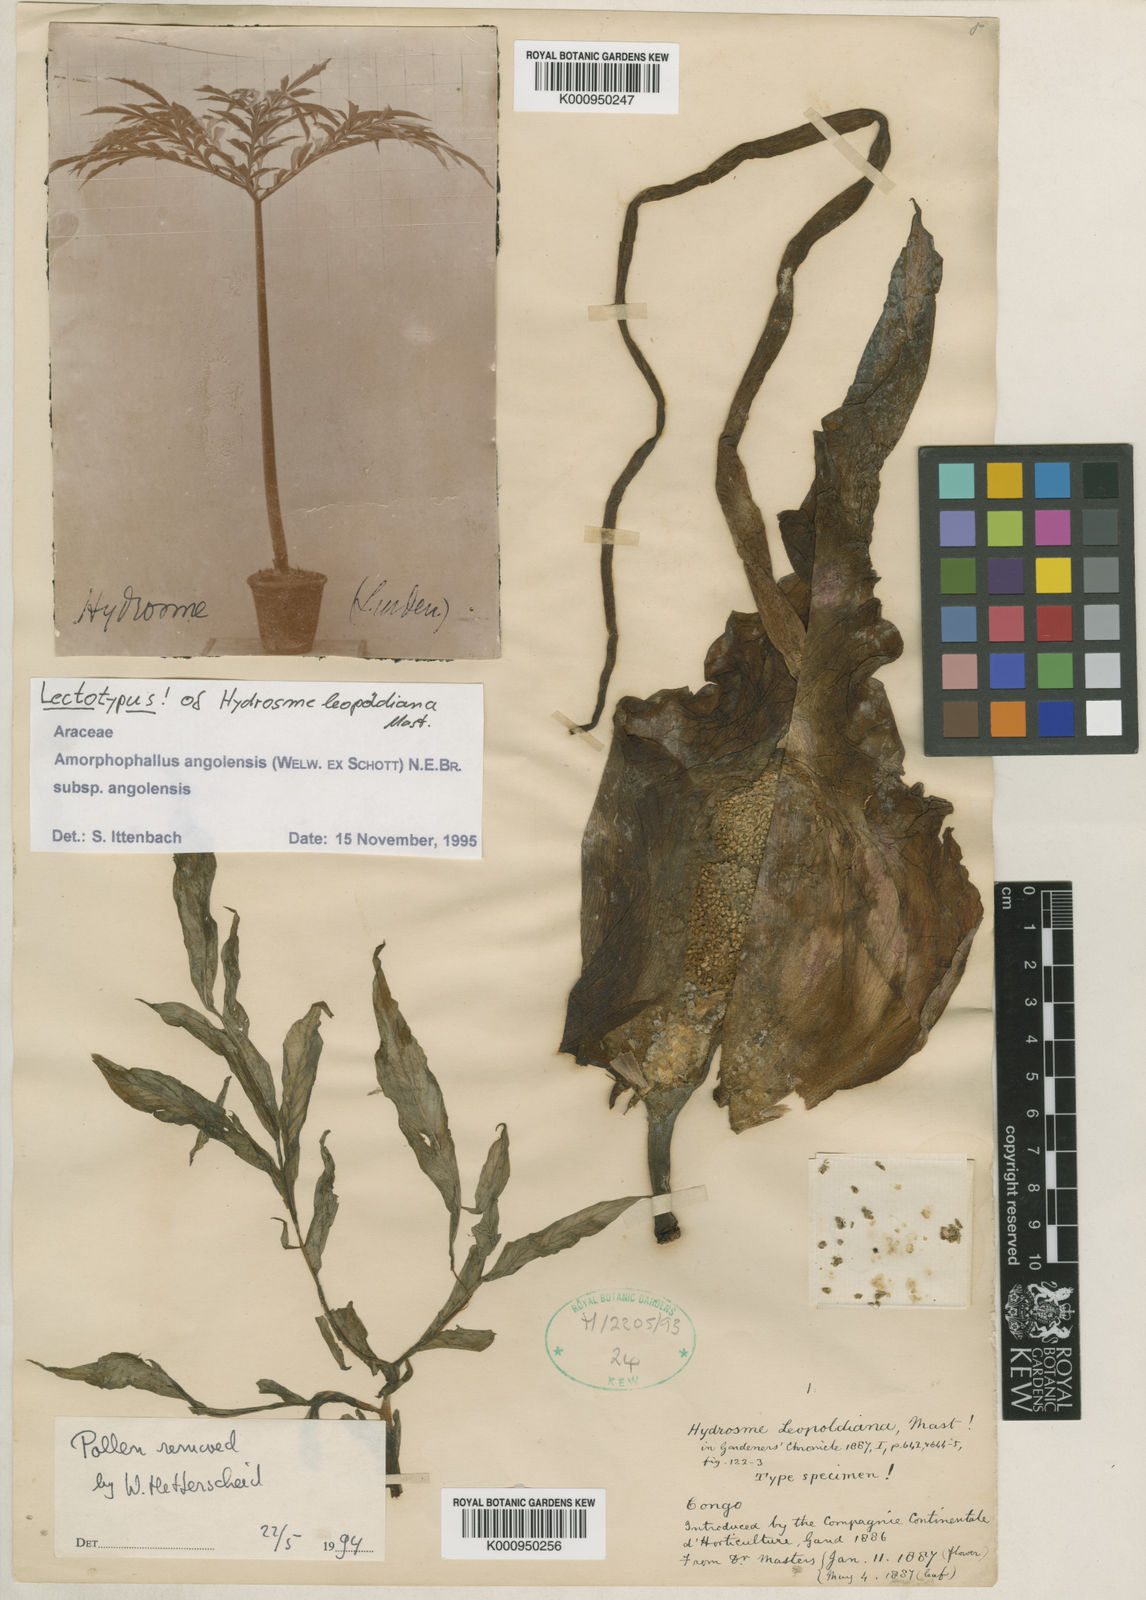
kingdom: Plantae
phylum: Tracheophyta
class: Liliopsida
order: Alismatales
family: Araceae
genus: Amorphophallus
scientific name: Amorphophallus angolensis
